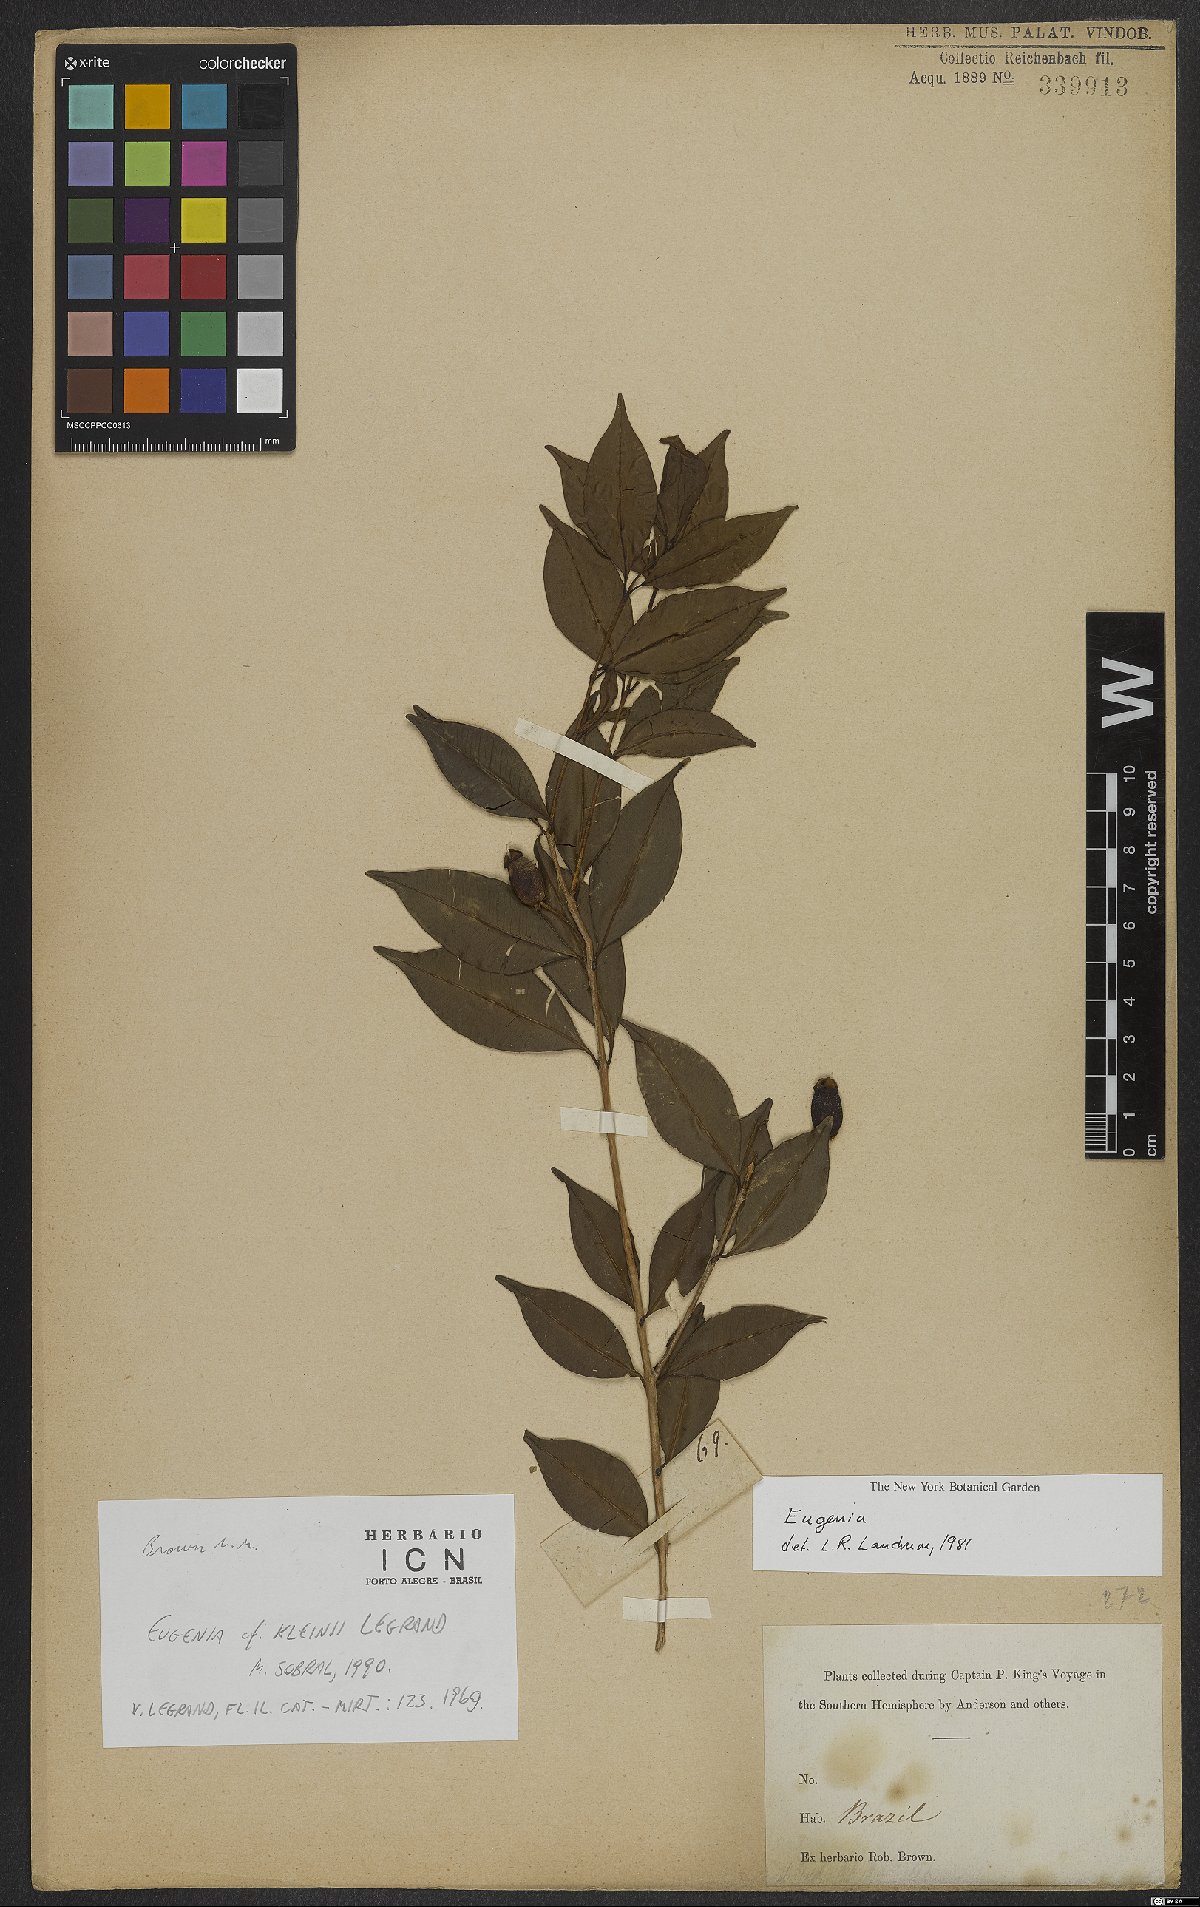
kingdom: Plantae
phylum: Tracheophyta
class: Magnoliopsida
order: Myrtales
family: Myrtaceae
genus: Eugenia
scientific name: Eugenia kleinii
